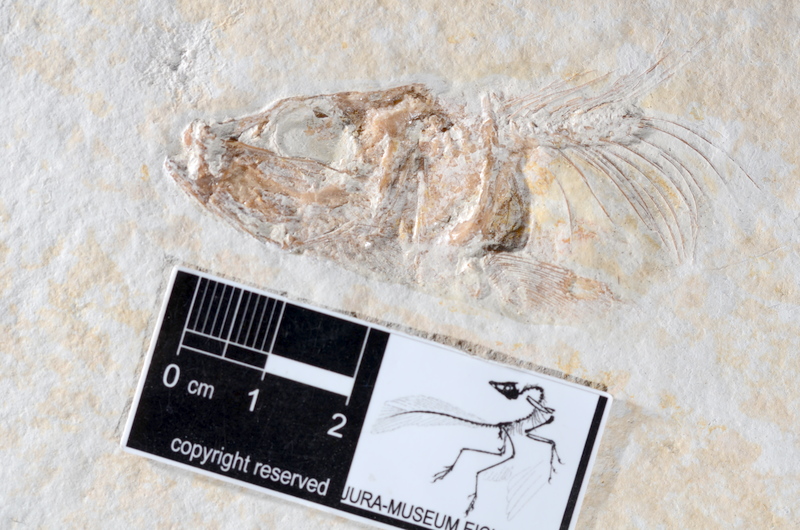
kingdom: Animalia
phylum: Chordata
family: Ascalaboidae
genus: Tharsis
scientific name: Tharsis dubius
